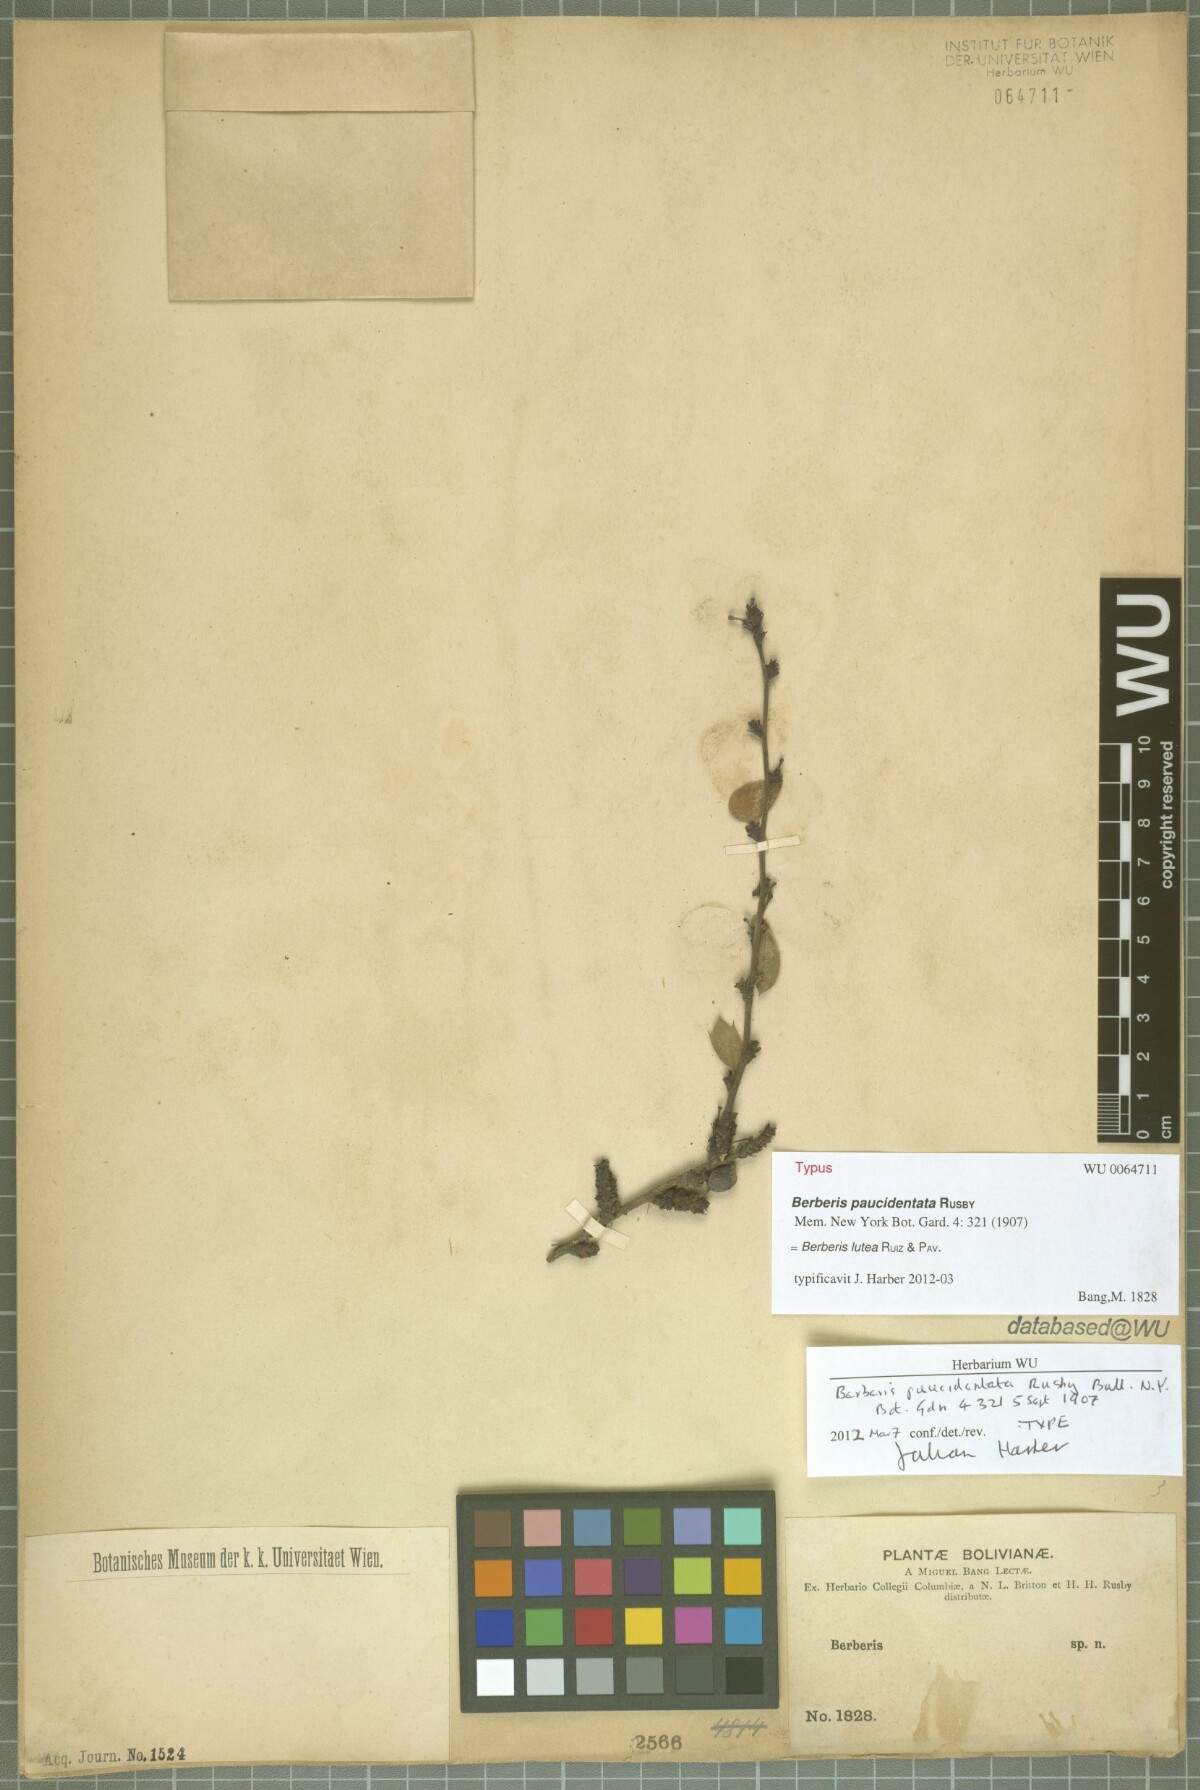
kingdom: Plantae
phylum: Tracheophyta
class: Magnoliopsida
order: Ranunculales
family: Berberidaceae
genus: Berberis
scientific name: Berberis phyllacantha
